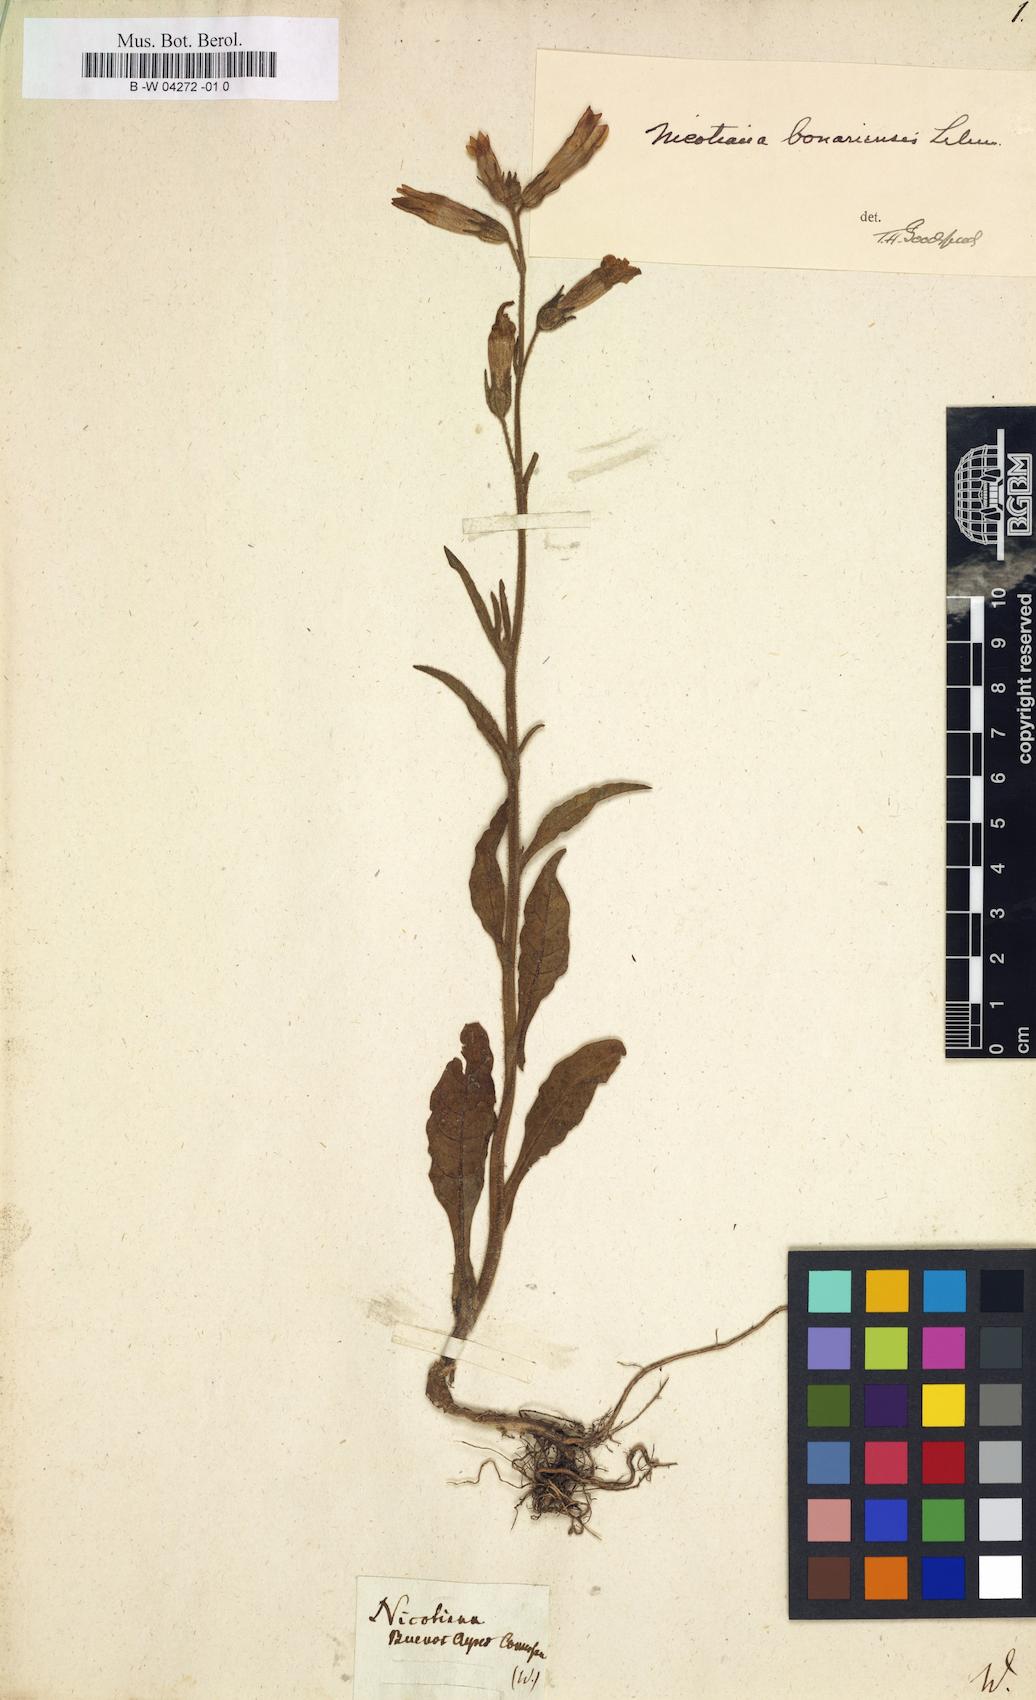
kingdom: Plantae
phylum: Tracheophyta
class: Magnoliopsida
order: Solanales
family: Solanaceae
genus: Nicotiana
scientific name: Nicotiana bonariensis
